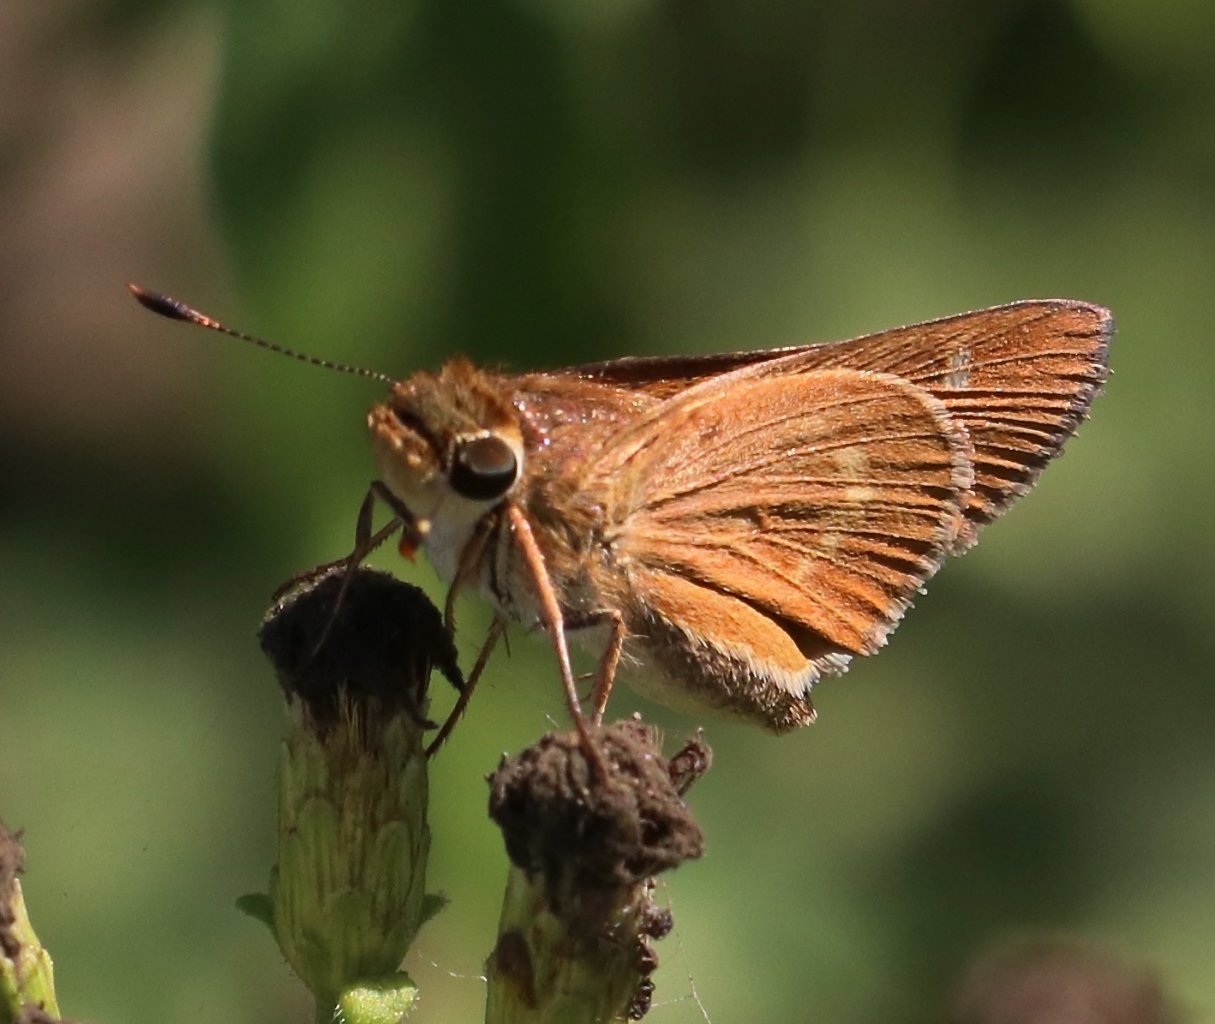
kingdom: Animalia
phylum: Arthropoda
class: Insecta
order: Lepidoptera
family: Hesperiidae
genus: Wallengrenia
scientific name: Wallengrenia otho
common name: Southern Broken-Dash
